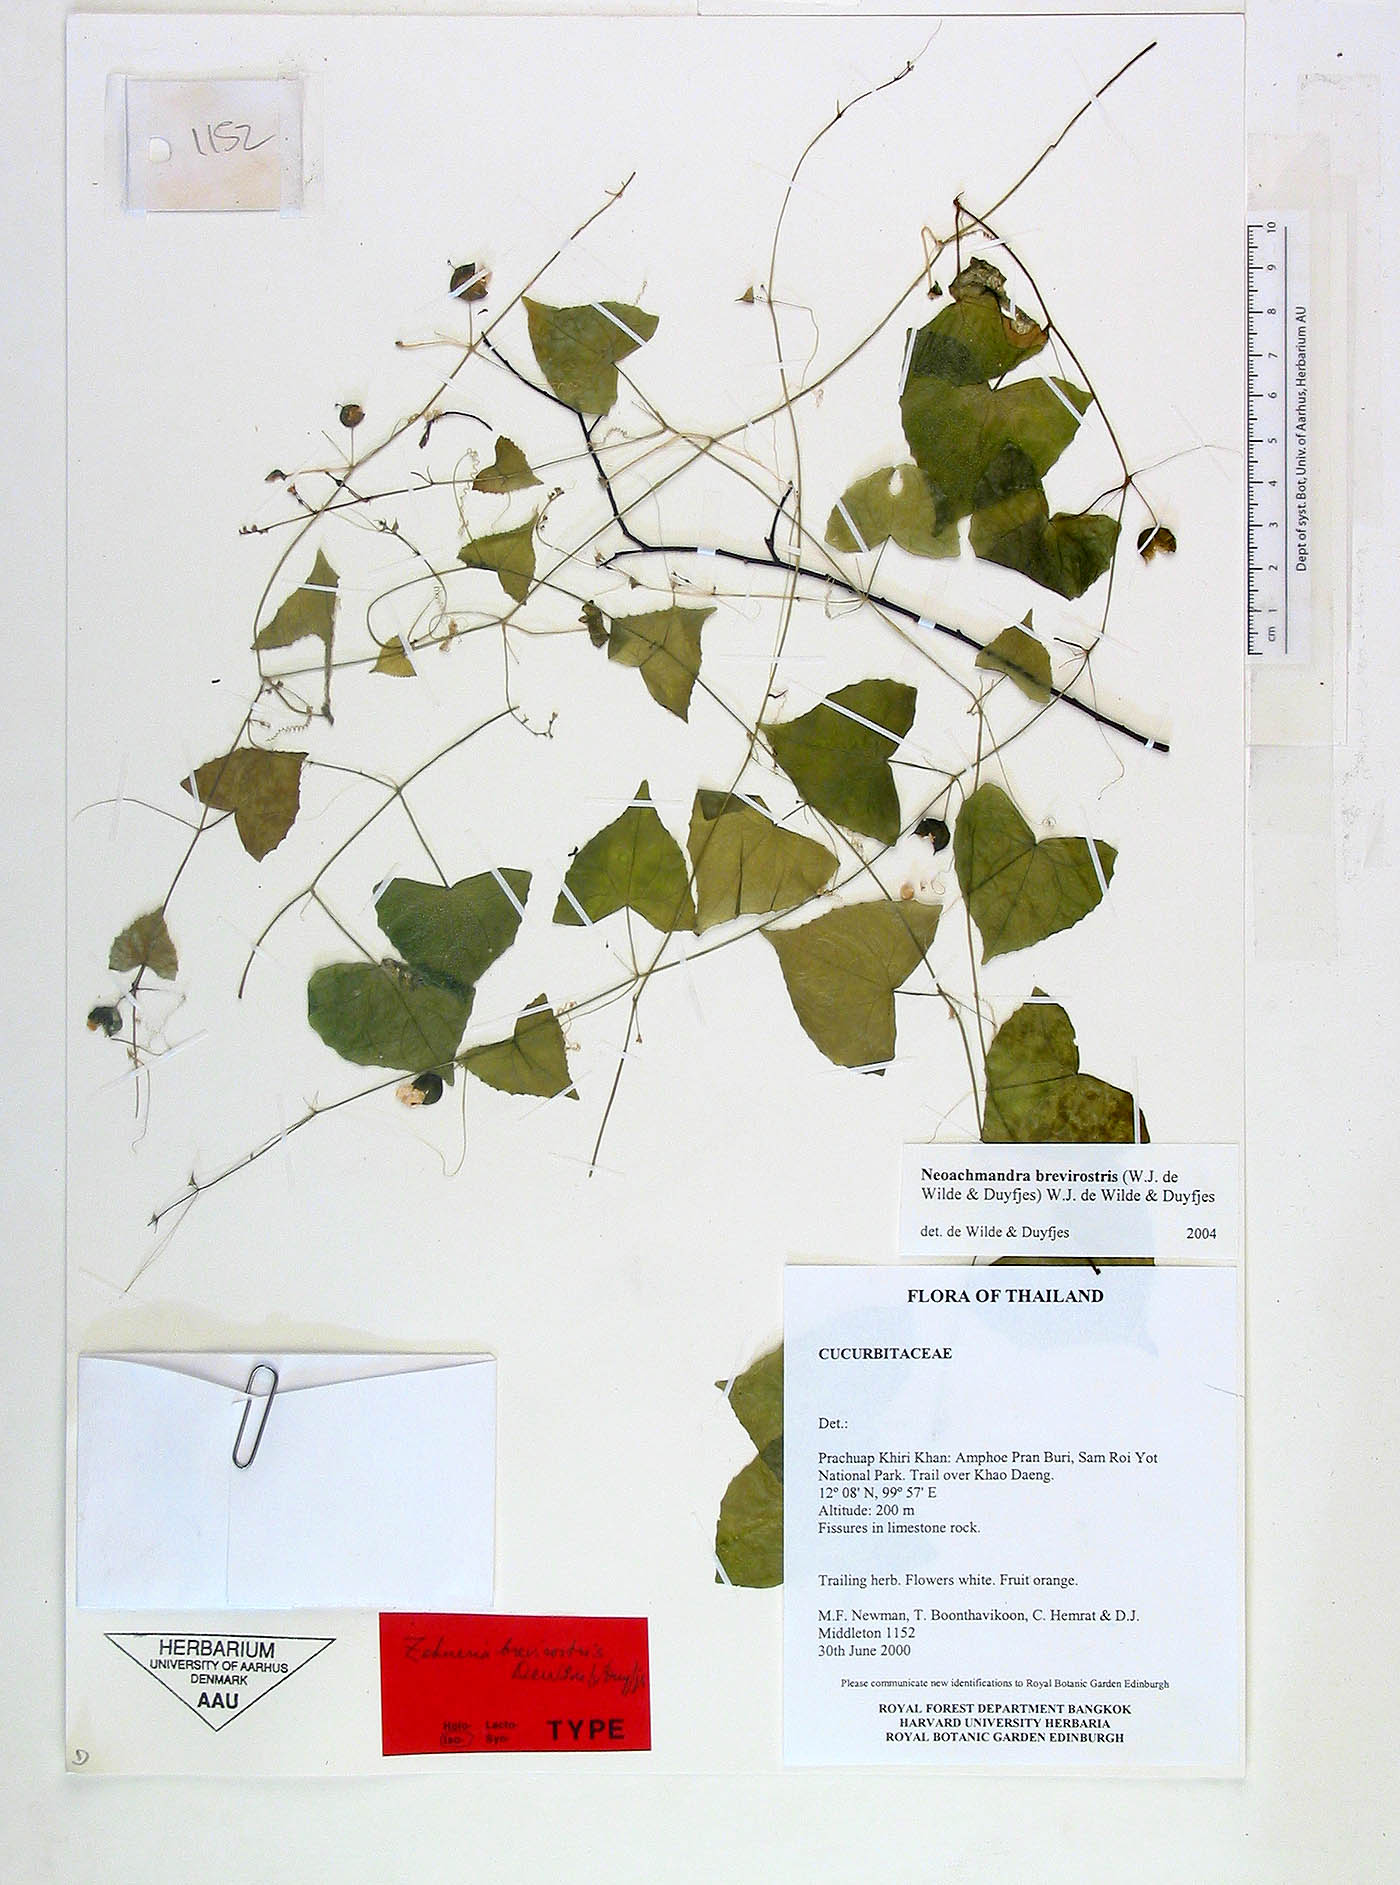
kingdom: Plantae
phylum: Tracheophyta
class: Magnoliopsida
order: Cucurbitales
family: Cucurbitaceae
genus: Zehneria
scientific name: Zehneria brevirostris
